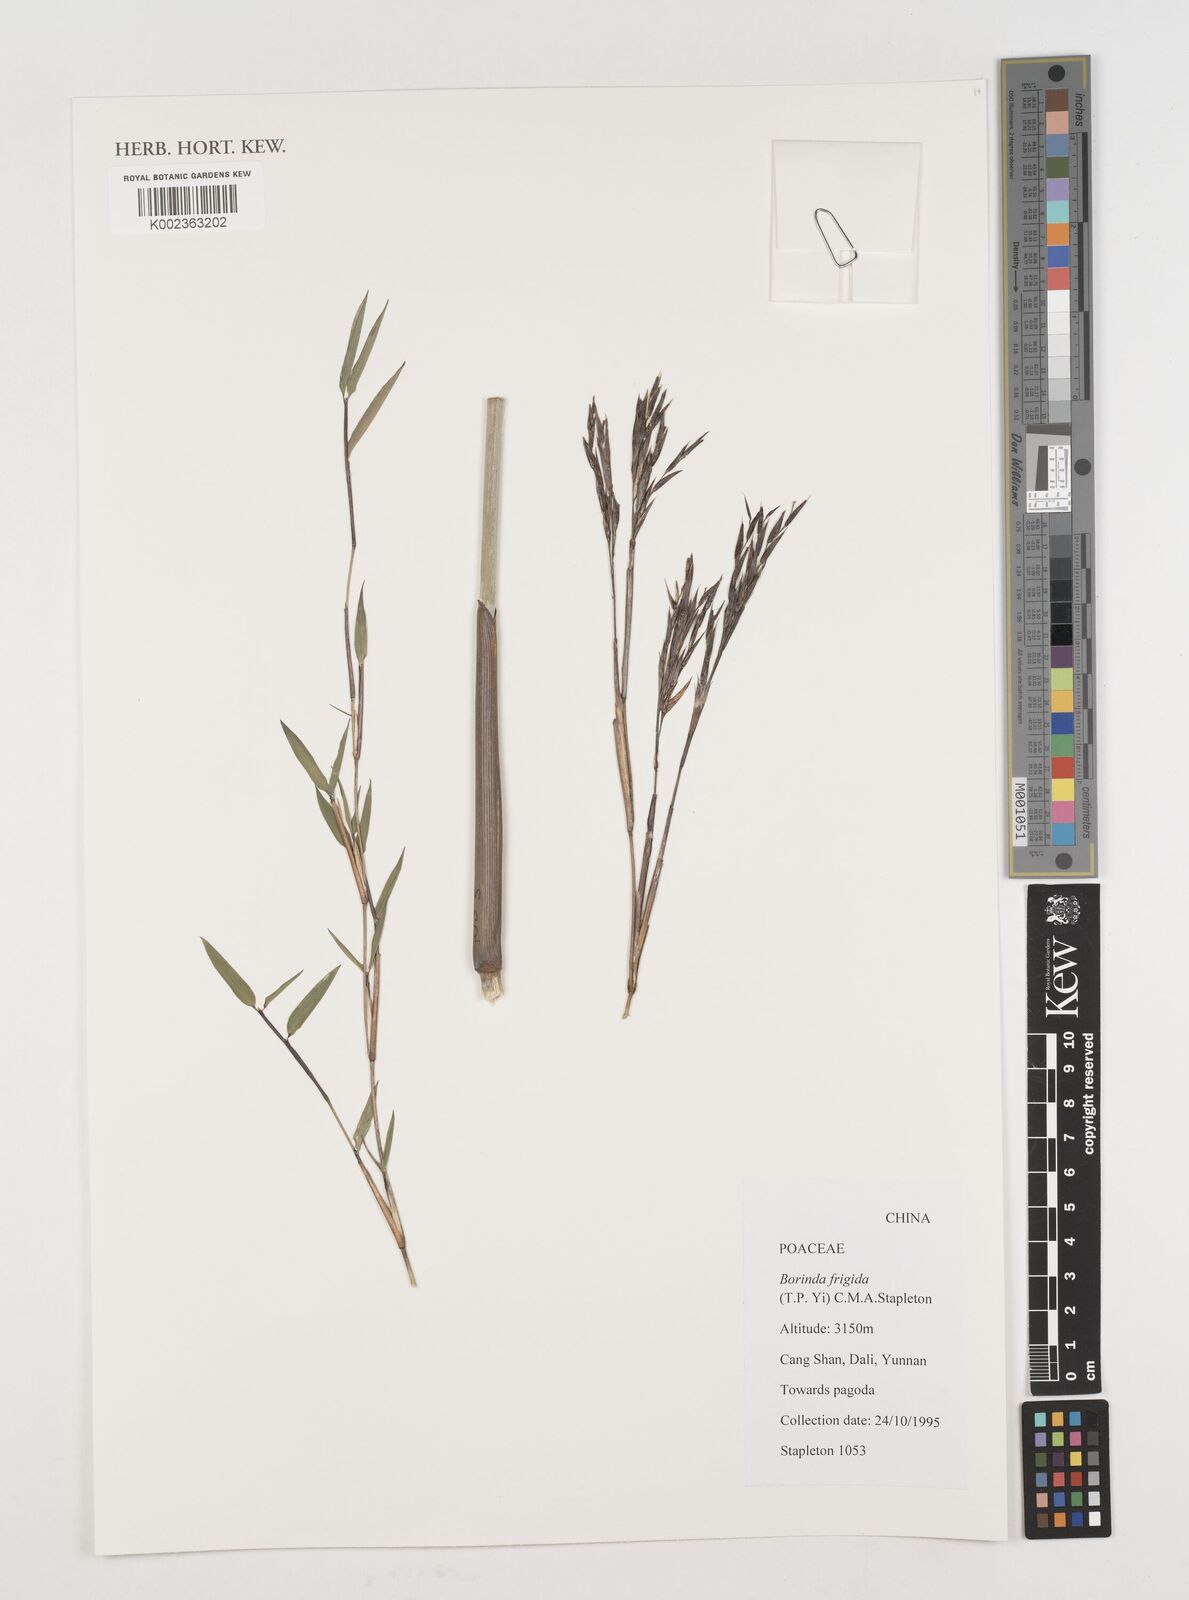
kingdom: Plantae
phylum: Tracheophyta
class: Liliopsida
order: Poales
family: Poaceae
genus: Fargesia
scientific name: Fargesia
